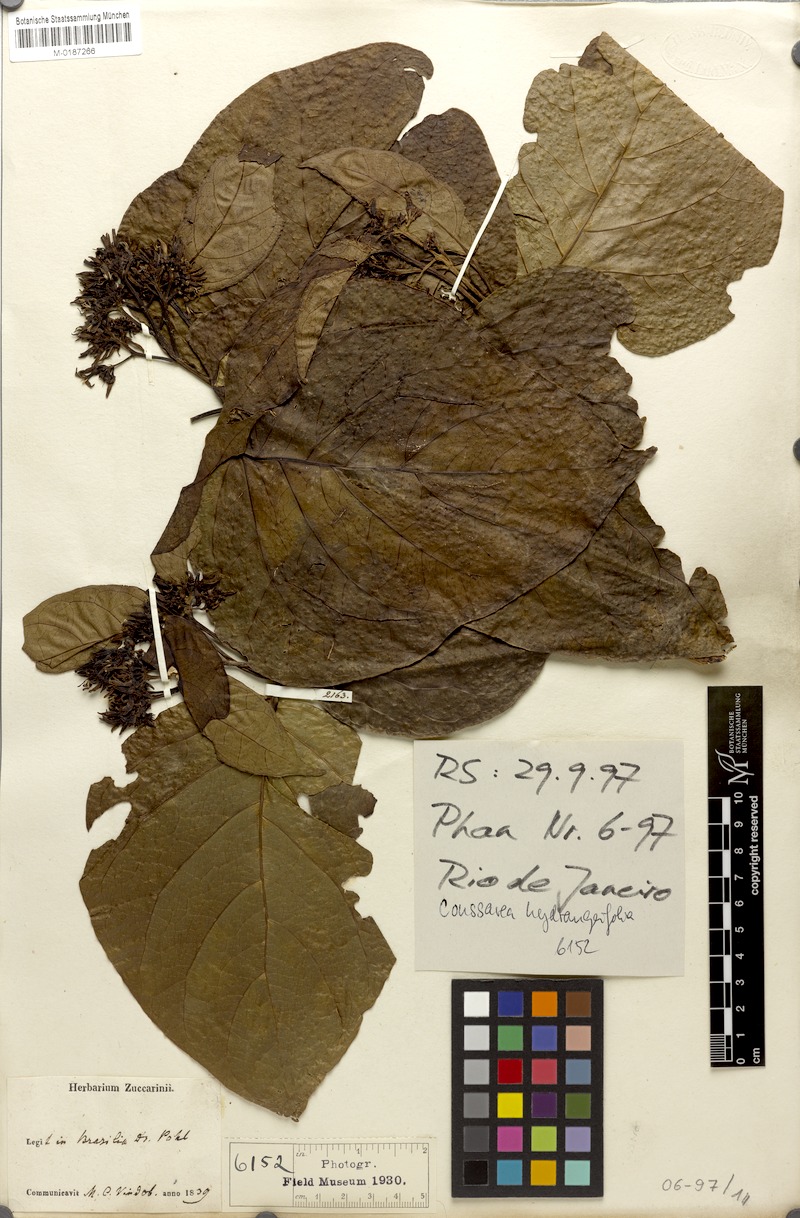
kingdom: Plantae
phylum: Tracheophyta
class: Magnoliopsida
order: Gentianales
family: Rubiaceae
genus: Coussarea
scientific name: Coussarea hydrangeifolia
